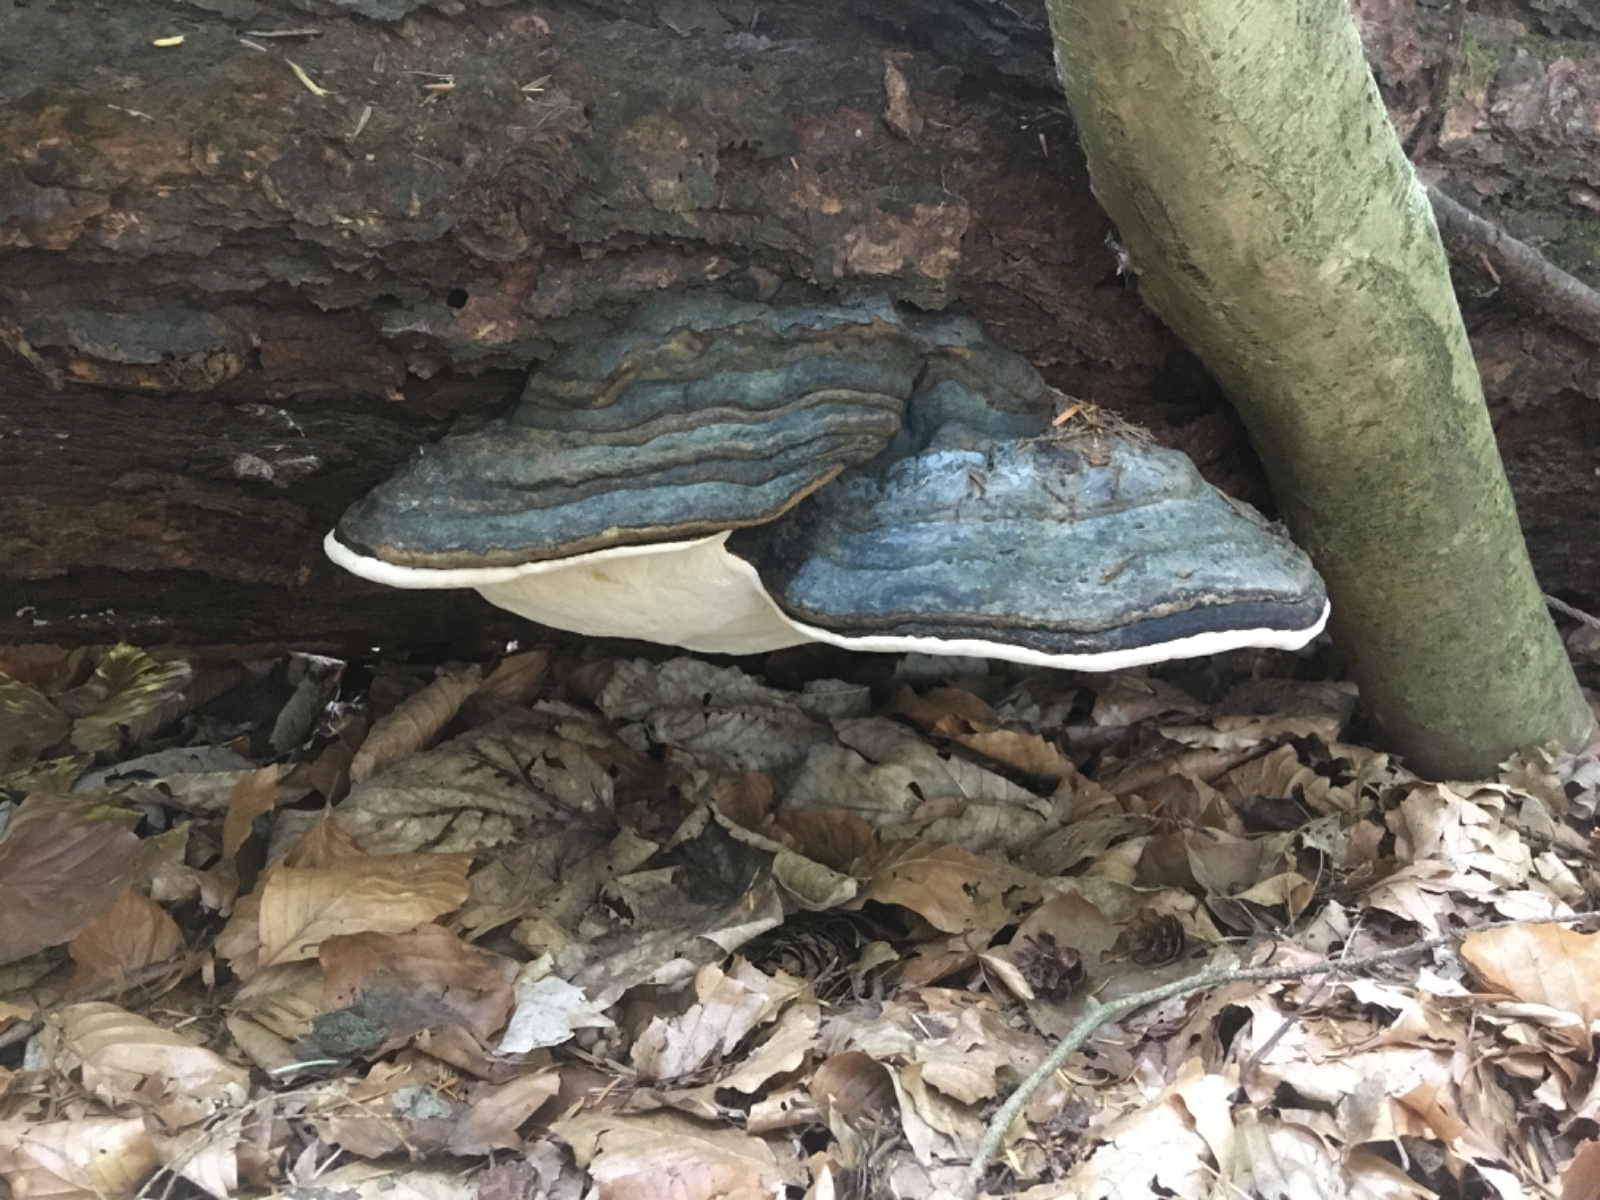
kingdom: Fungi
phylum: Basidiomycota
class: Agaricomycetes
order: Polyporales
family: Fomitopsidaceae
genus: Fomitopsis
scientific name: Fomitopsis pinicola
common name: randbæltet hovporesvamp
